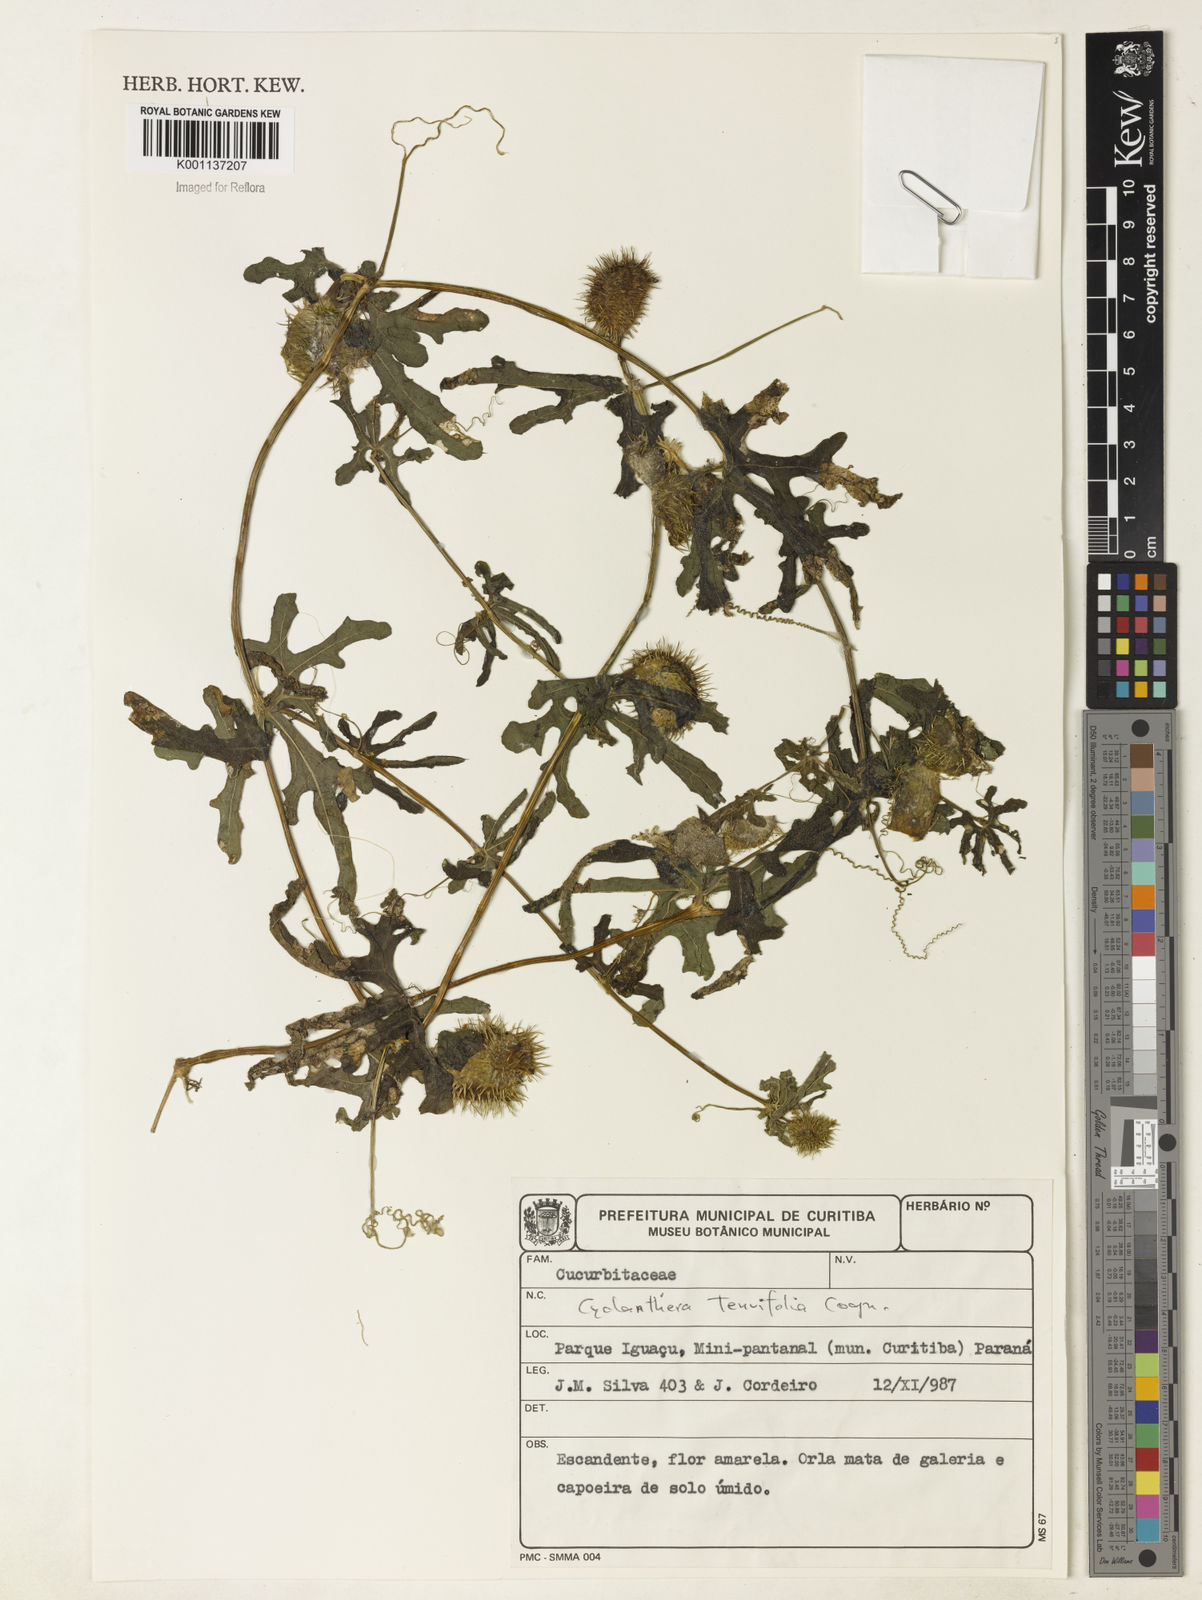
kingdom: Plantae
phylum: Tracheophyta
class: Magnoliopsida
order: Cucurbitales
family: Cucurbitaceae
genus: Cyclanthera
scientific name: Cyclanthera tenuifolia
